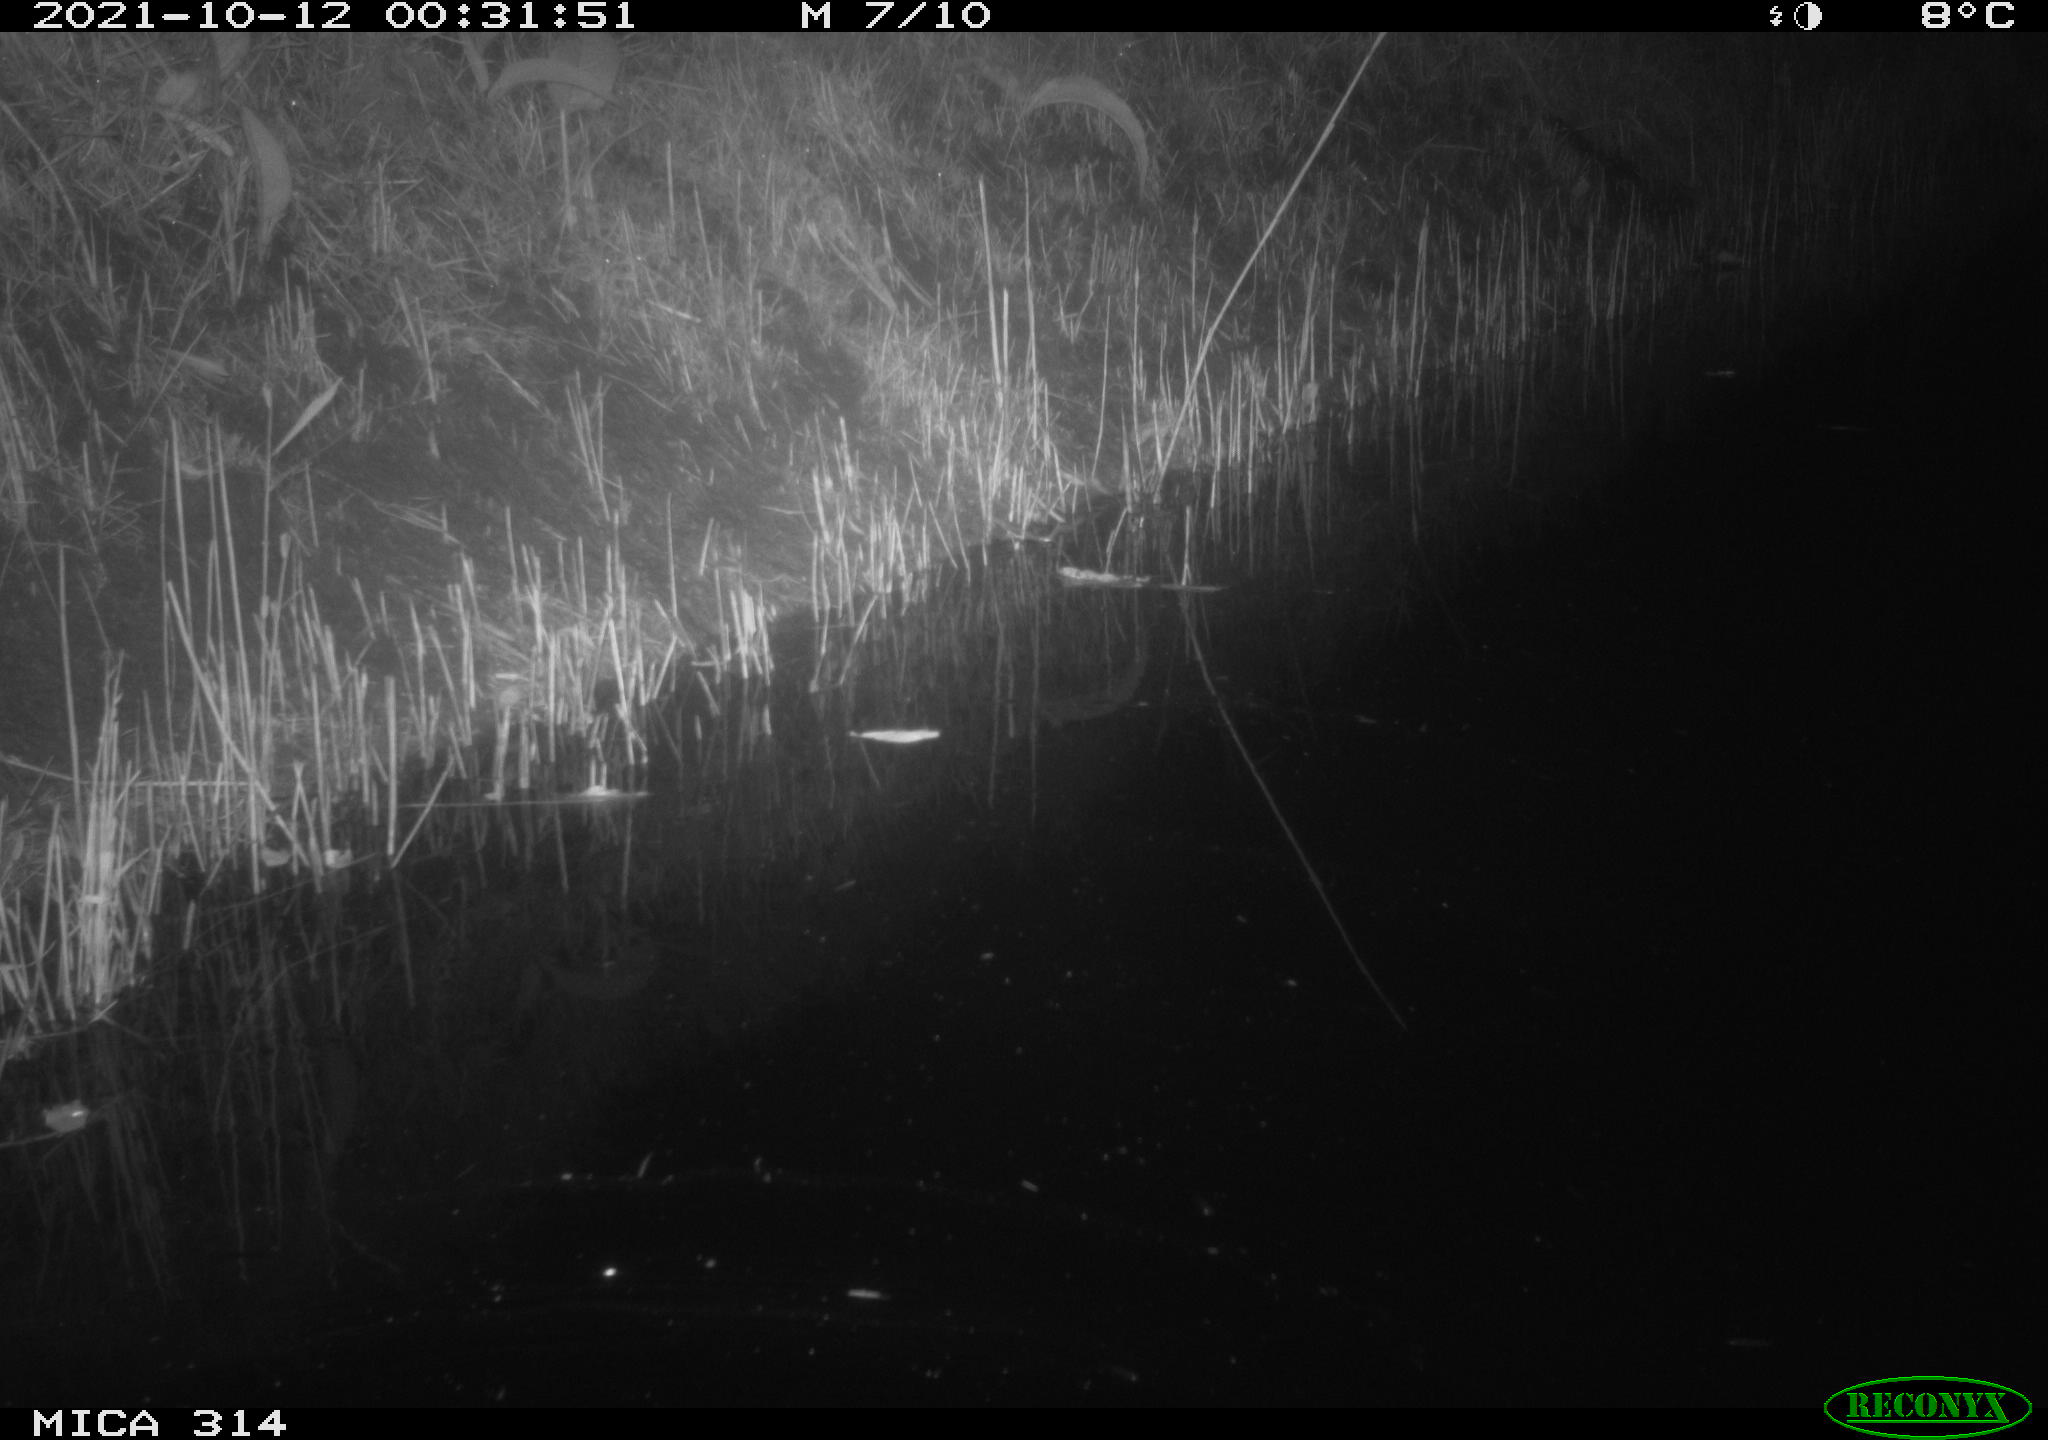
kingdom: Animalia
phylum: Chordata
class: Mammalia
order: Rodentia
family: Muridae
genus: Rattus
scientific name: Rattus norvegicus
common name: Brown rat
